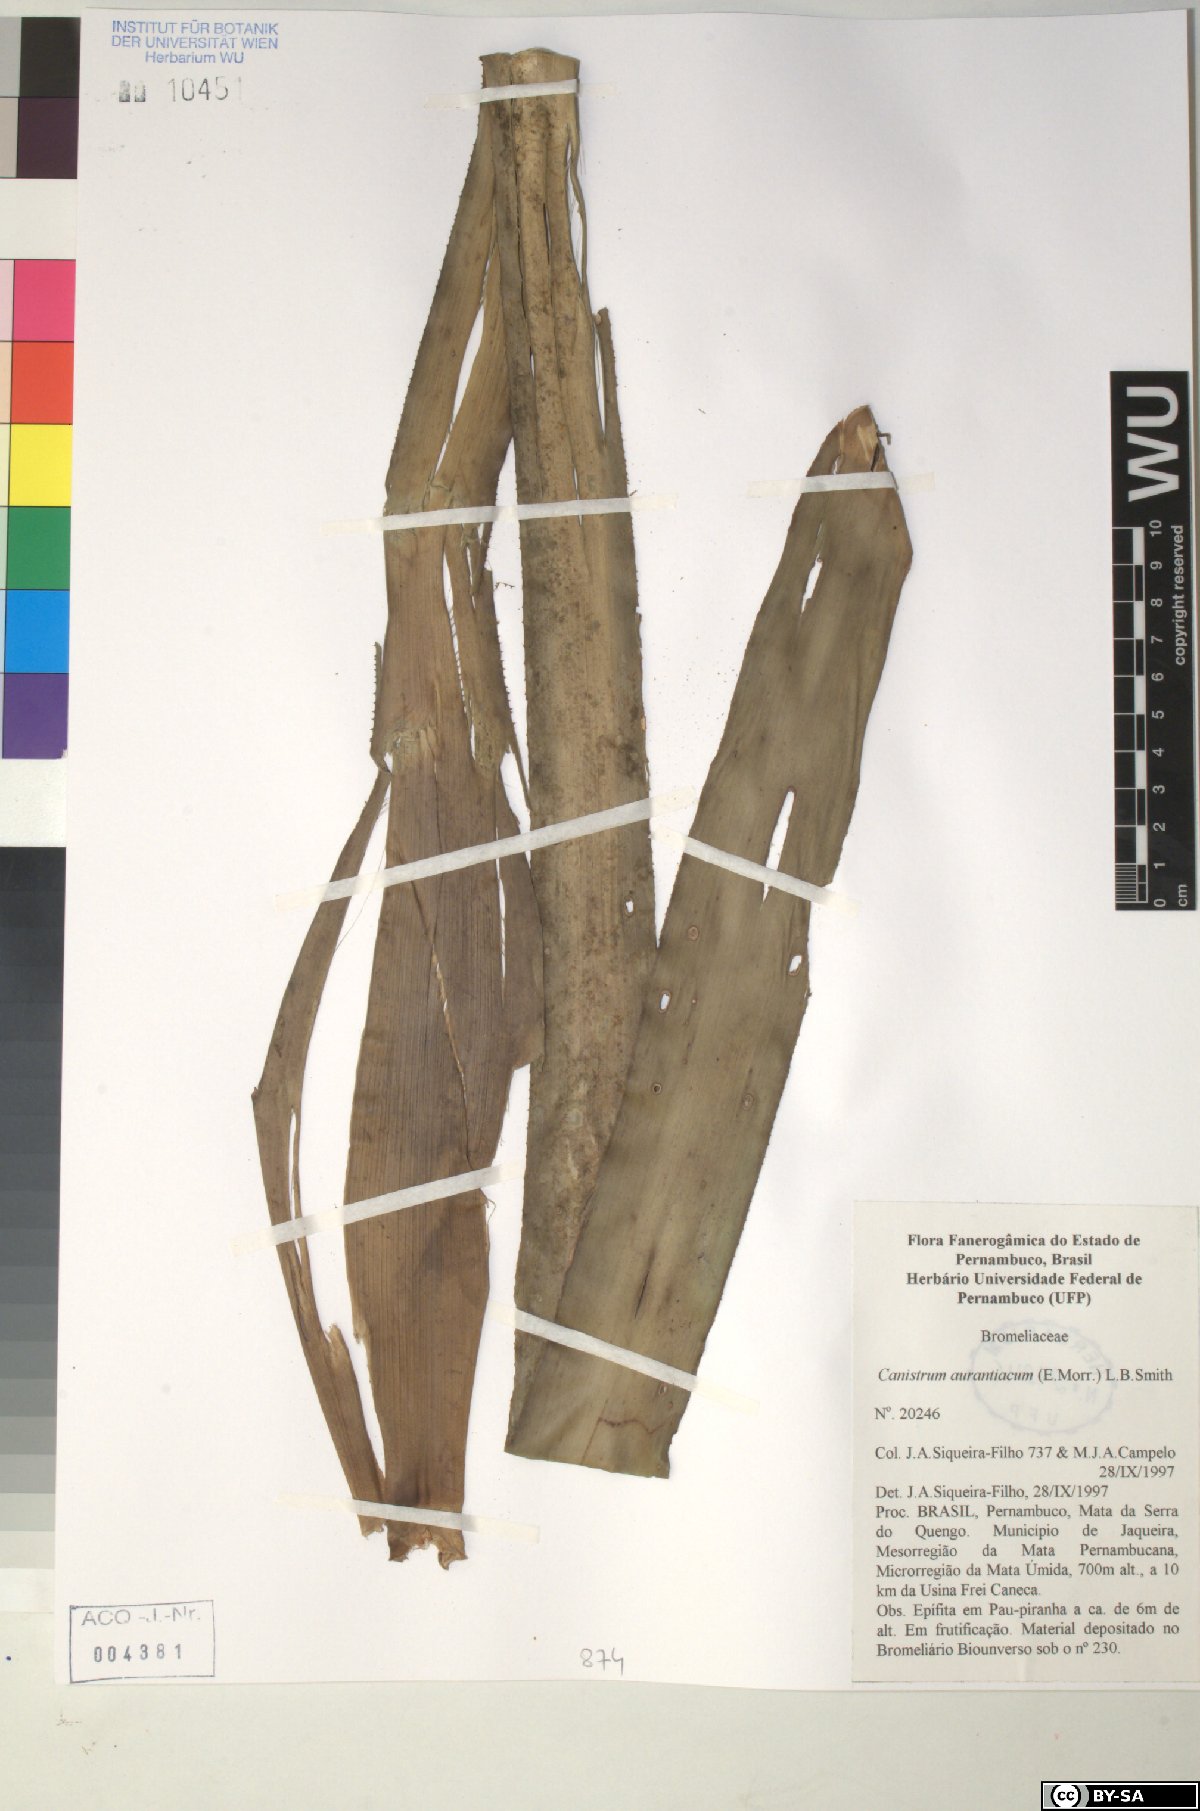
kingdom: Plantae
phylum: Tracheophyta
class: Liliopsida
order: Poales
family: Bromeliaceae
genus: Canistrum
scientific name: Canistrum aurantiacum
